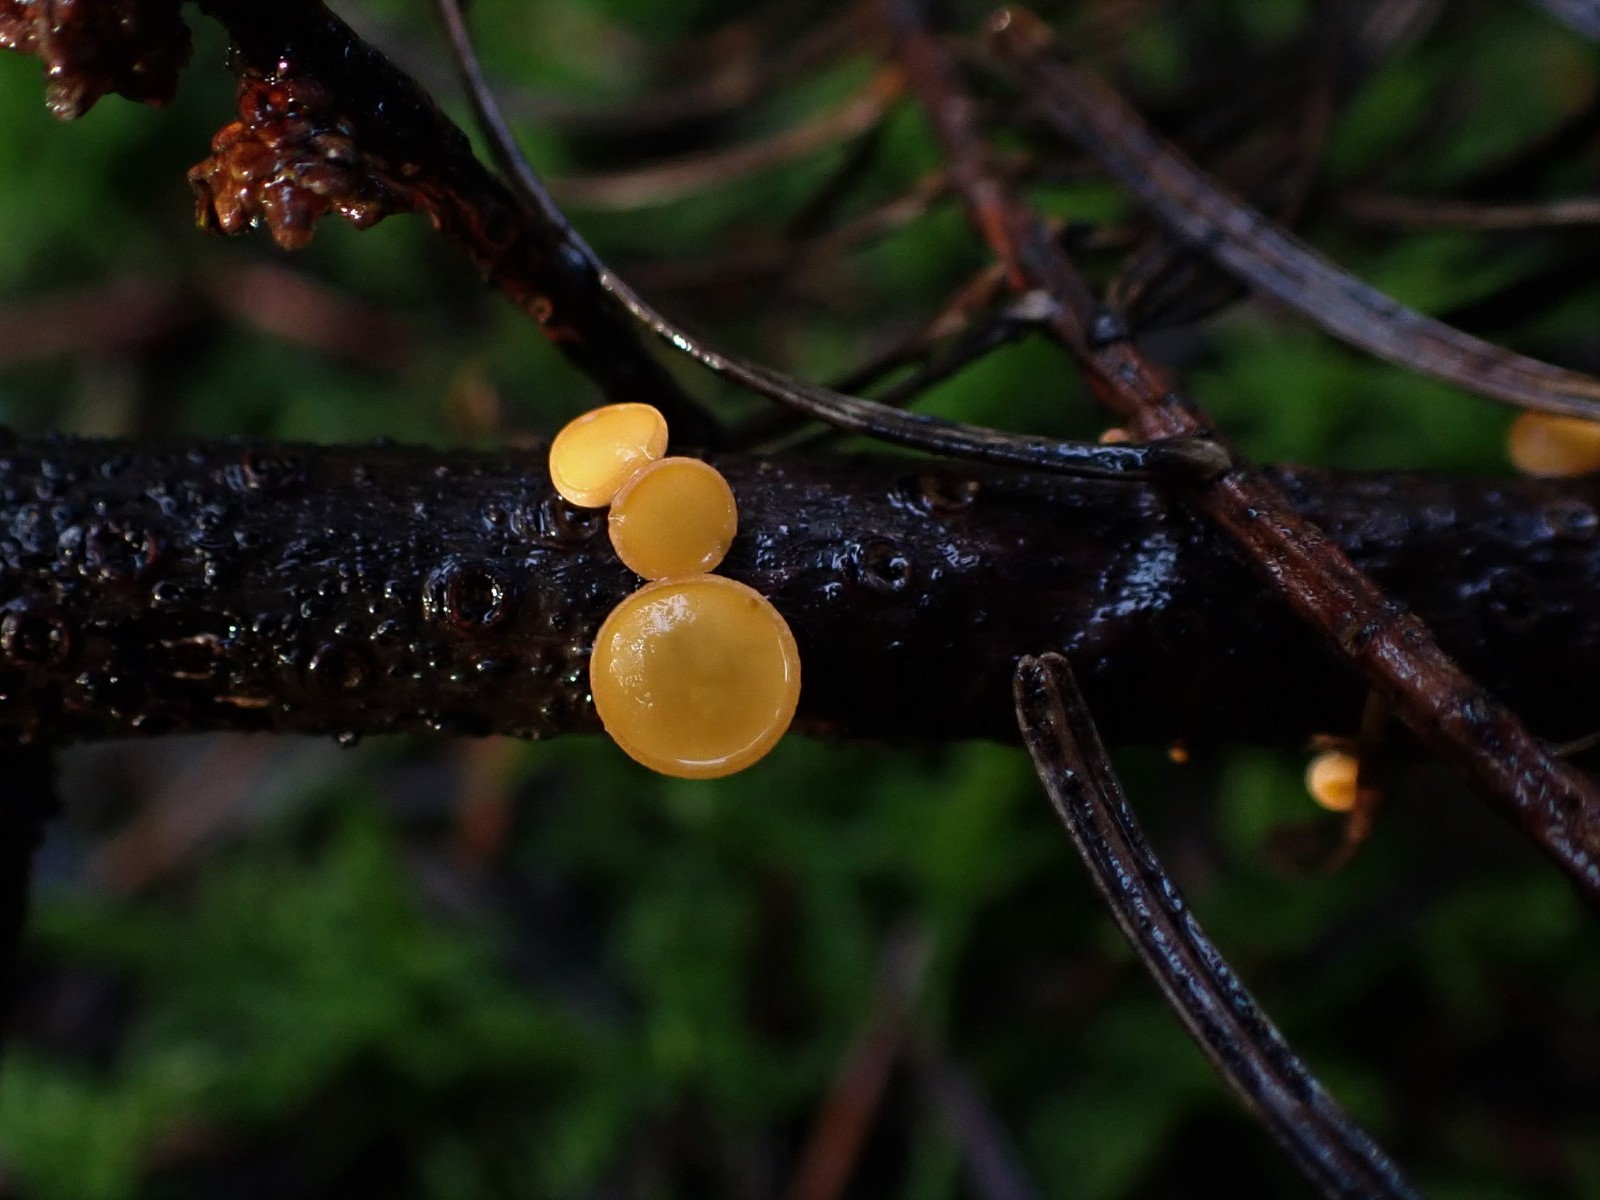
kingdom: Fungi
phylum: Ascomycota
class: Pezizomycetes
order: Pezizales
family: Sarcoscyphaceae
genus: Pithya
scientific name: Pithya vulgaris
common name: stor dukatbæger
